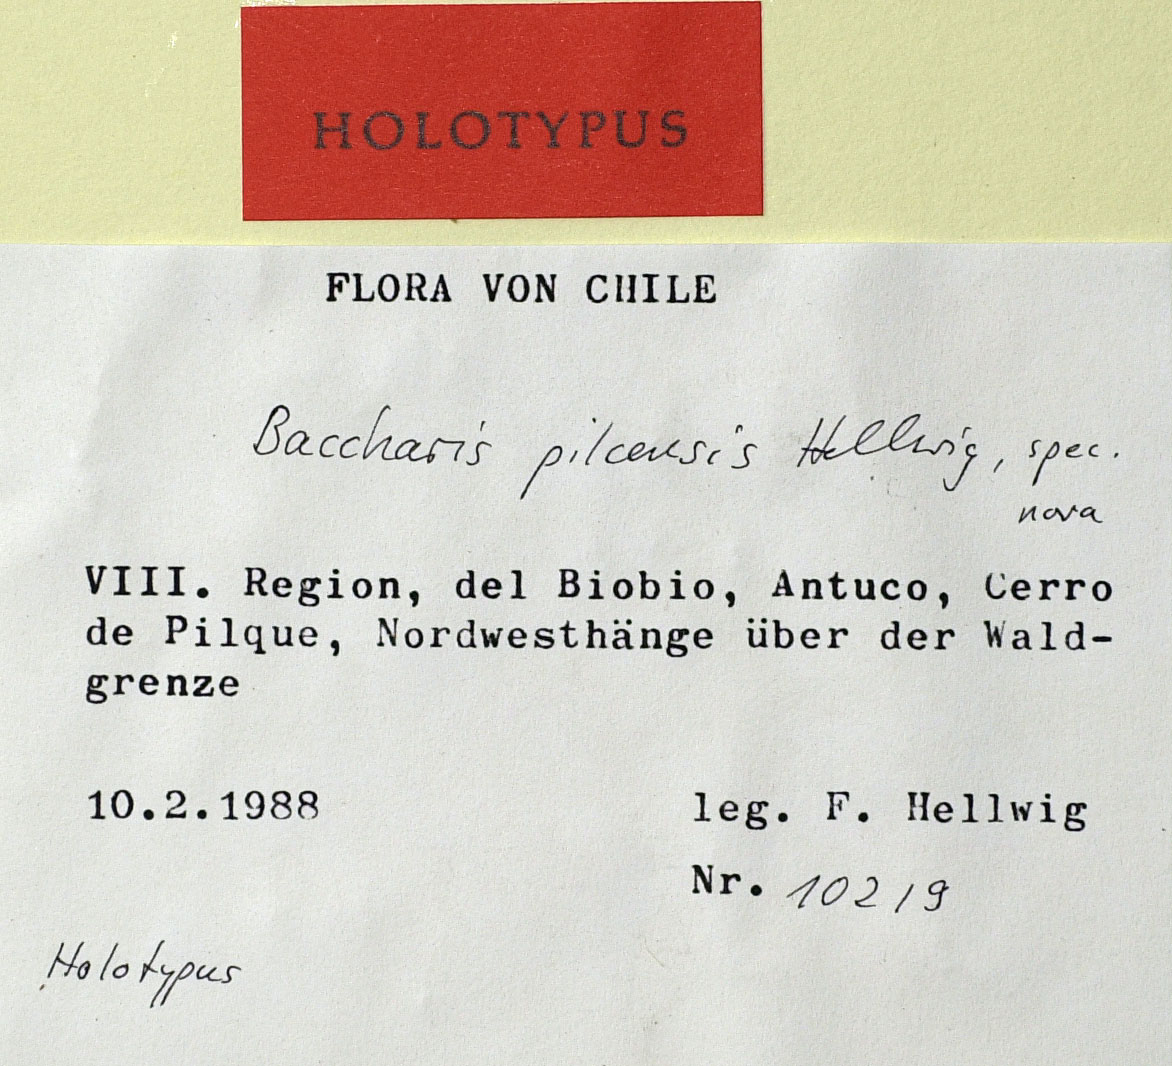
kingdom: Plantae
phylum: Tracheophyta
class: Magnoliopsida
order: Asterales
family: Asteraceae
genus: Baccharis
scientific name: Baccharis pilcensis
